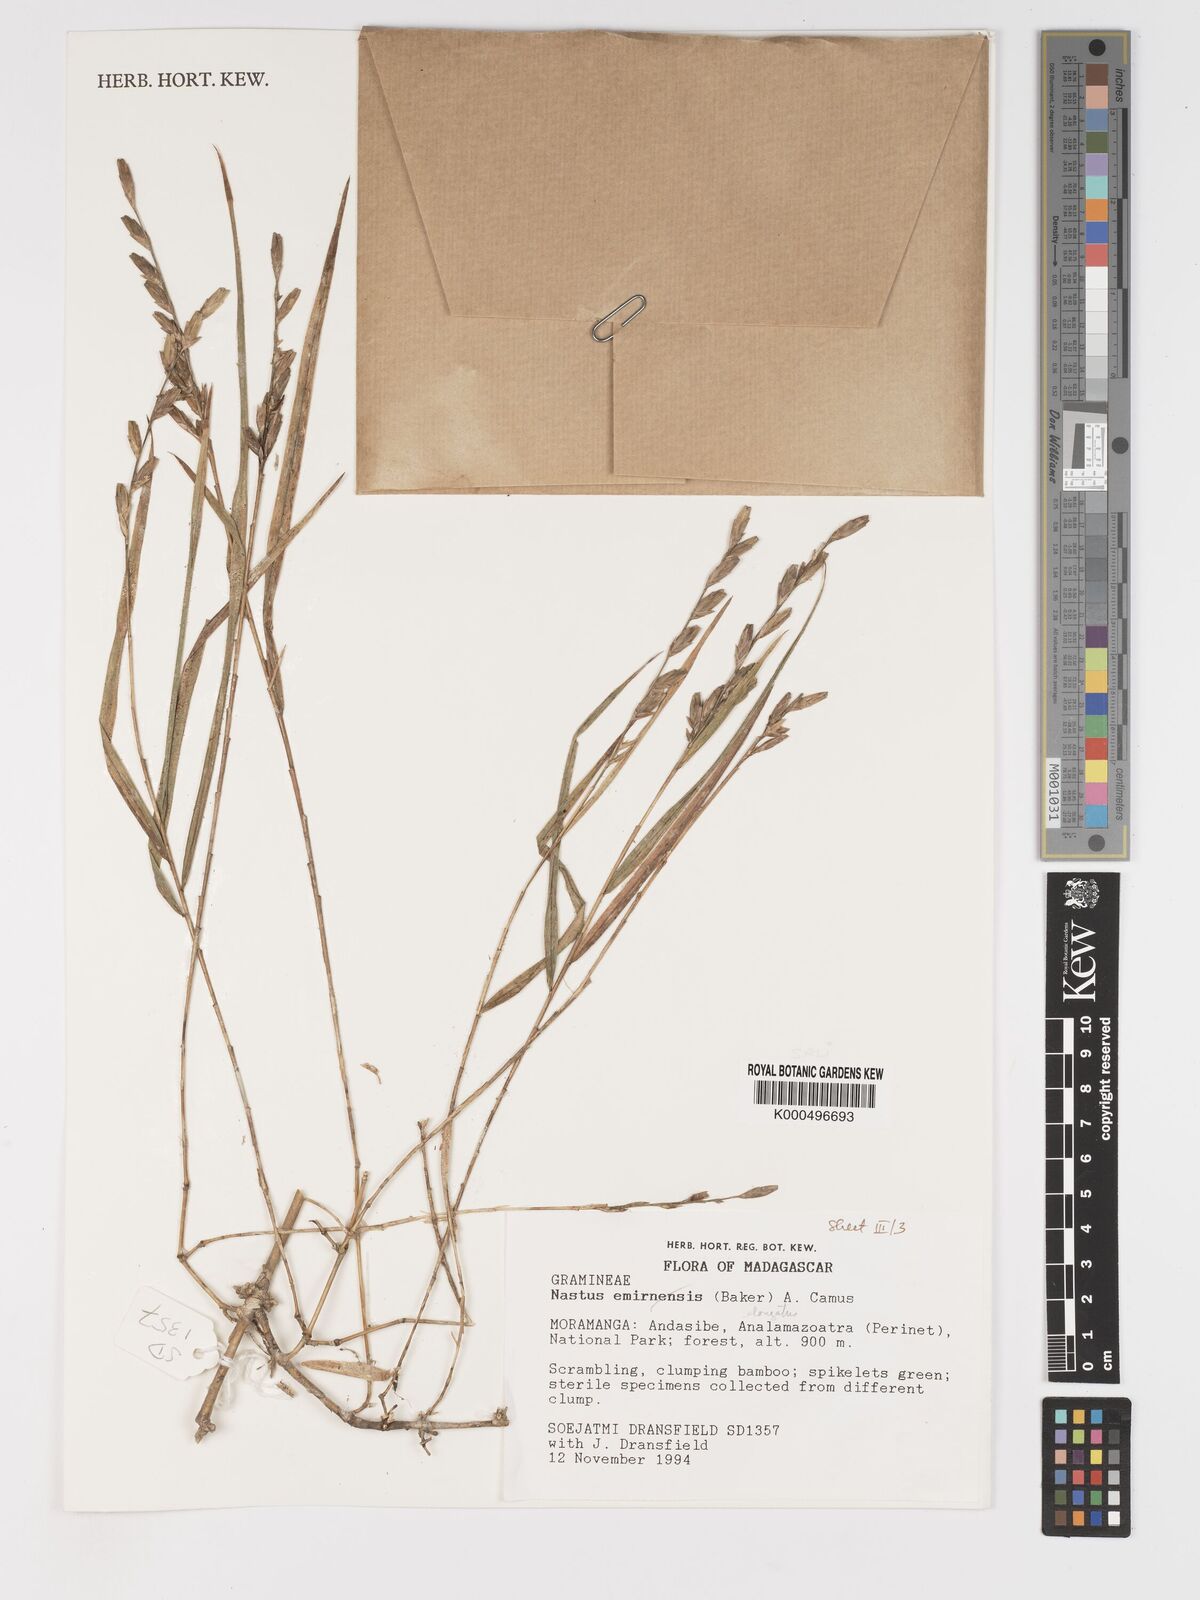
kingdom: Plantae
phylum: Tracheophyta
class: Liliopsida
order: Poales
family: Poaceae
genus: Nastus
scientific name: Nastus elongatus
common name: Spider bamboo
